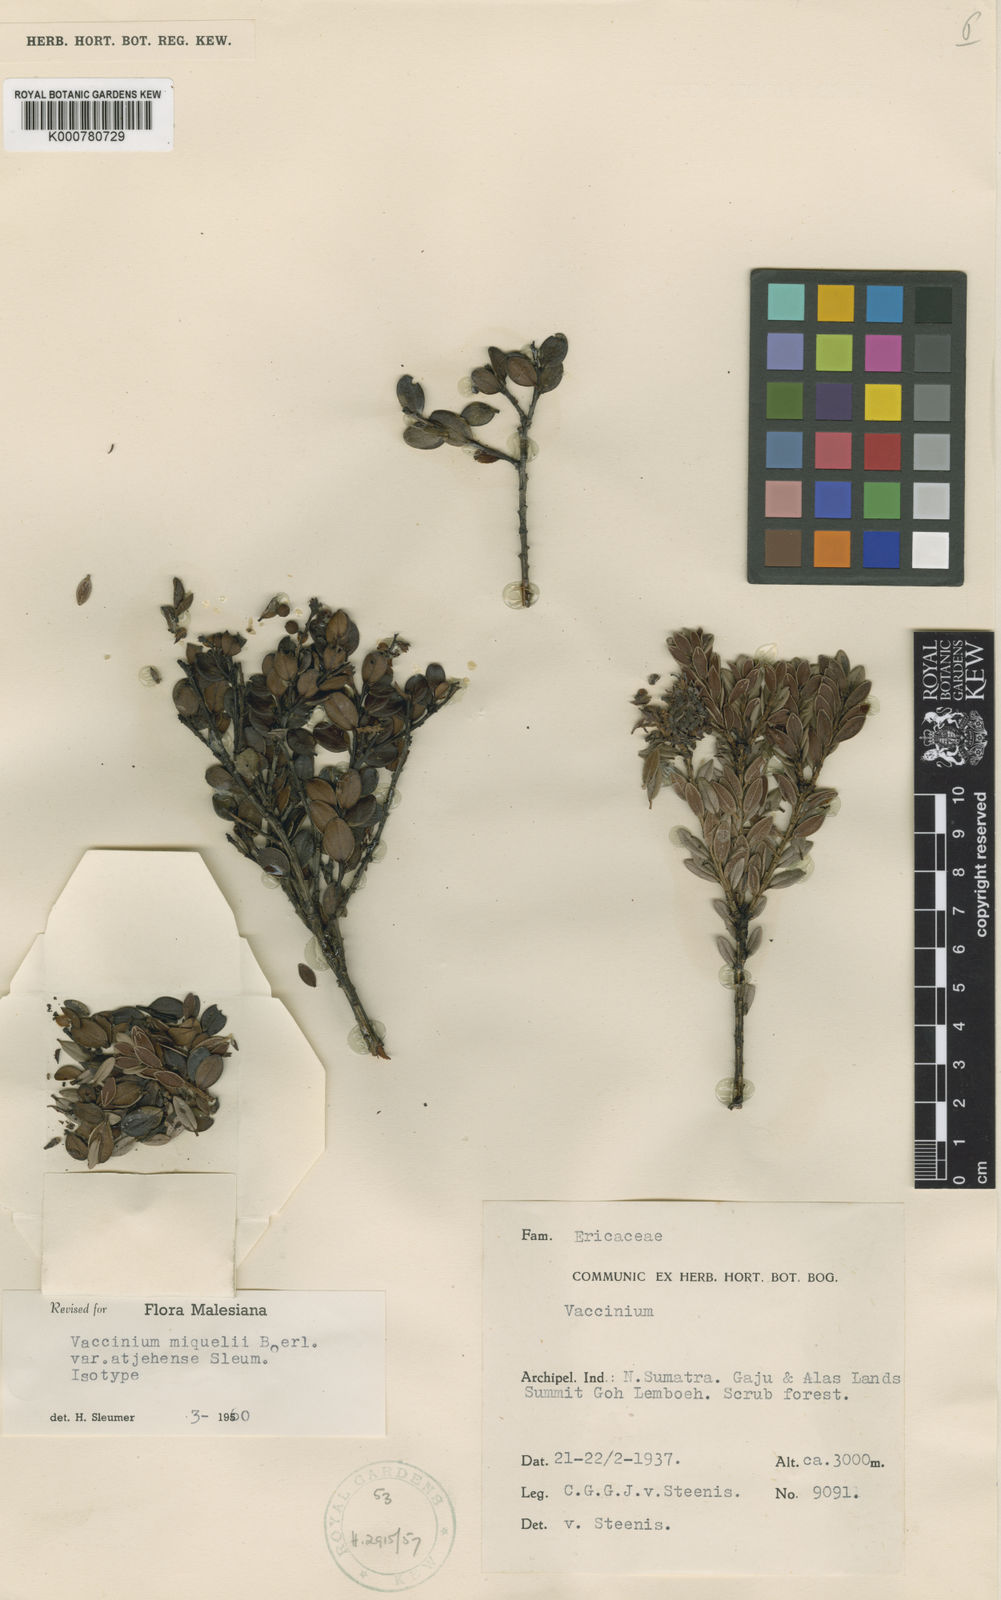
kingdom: Plantae
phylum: Tracheophyta
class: Magnoliopsida
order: Ericales
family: Ericaceae
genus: Vaccinium
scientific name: Vaccinium miquelii
